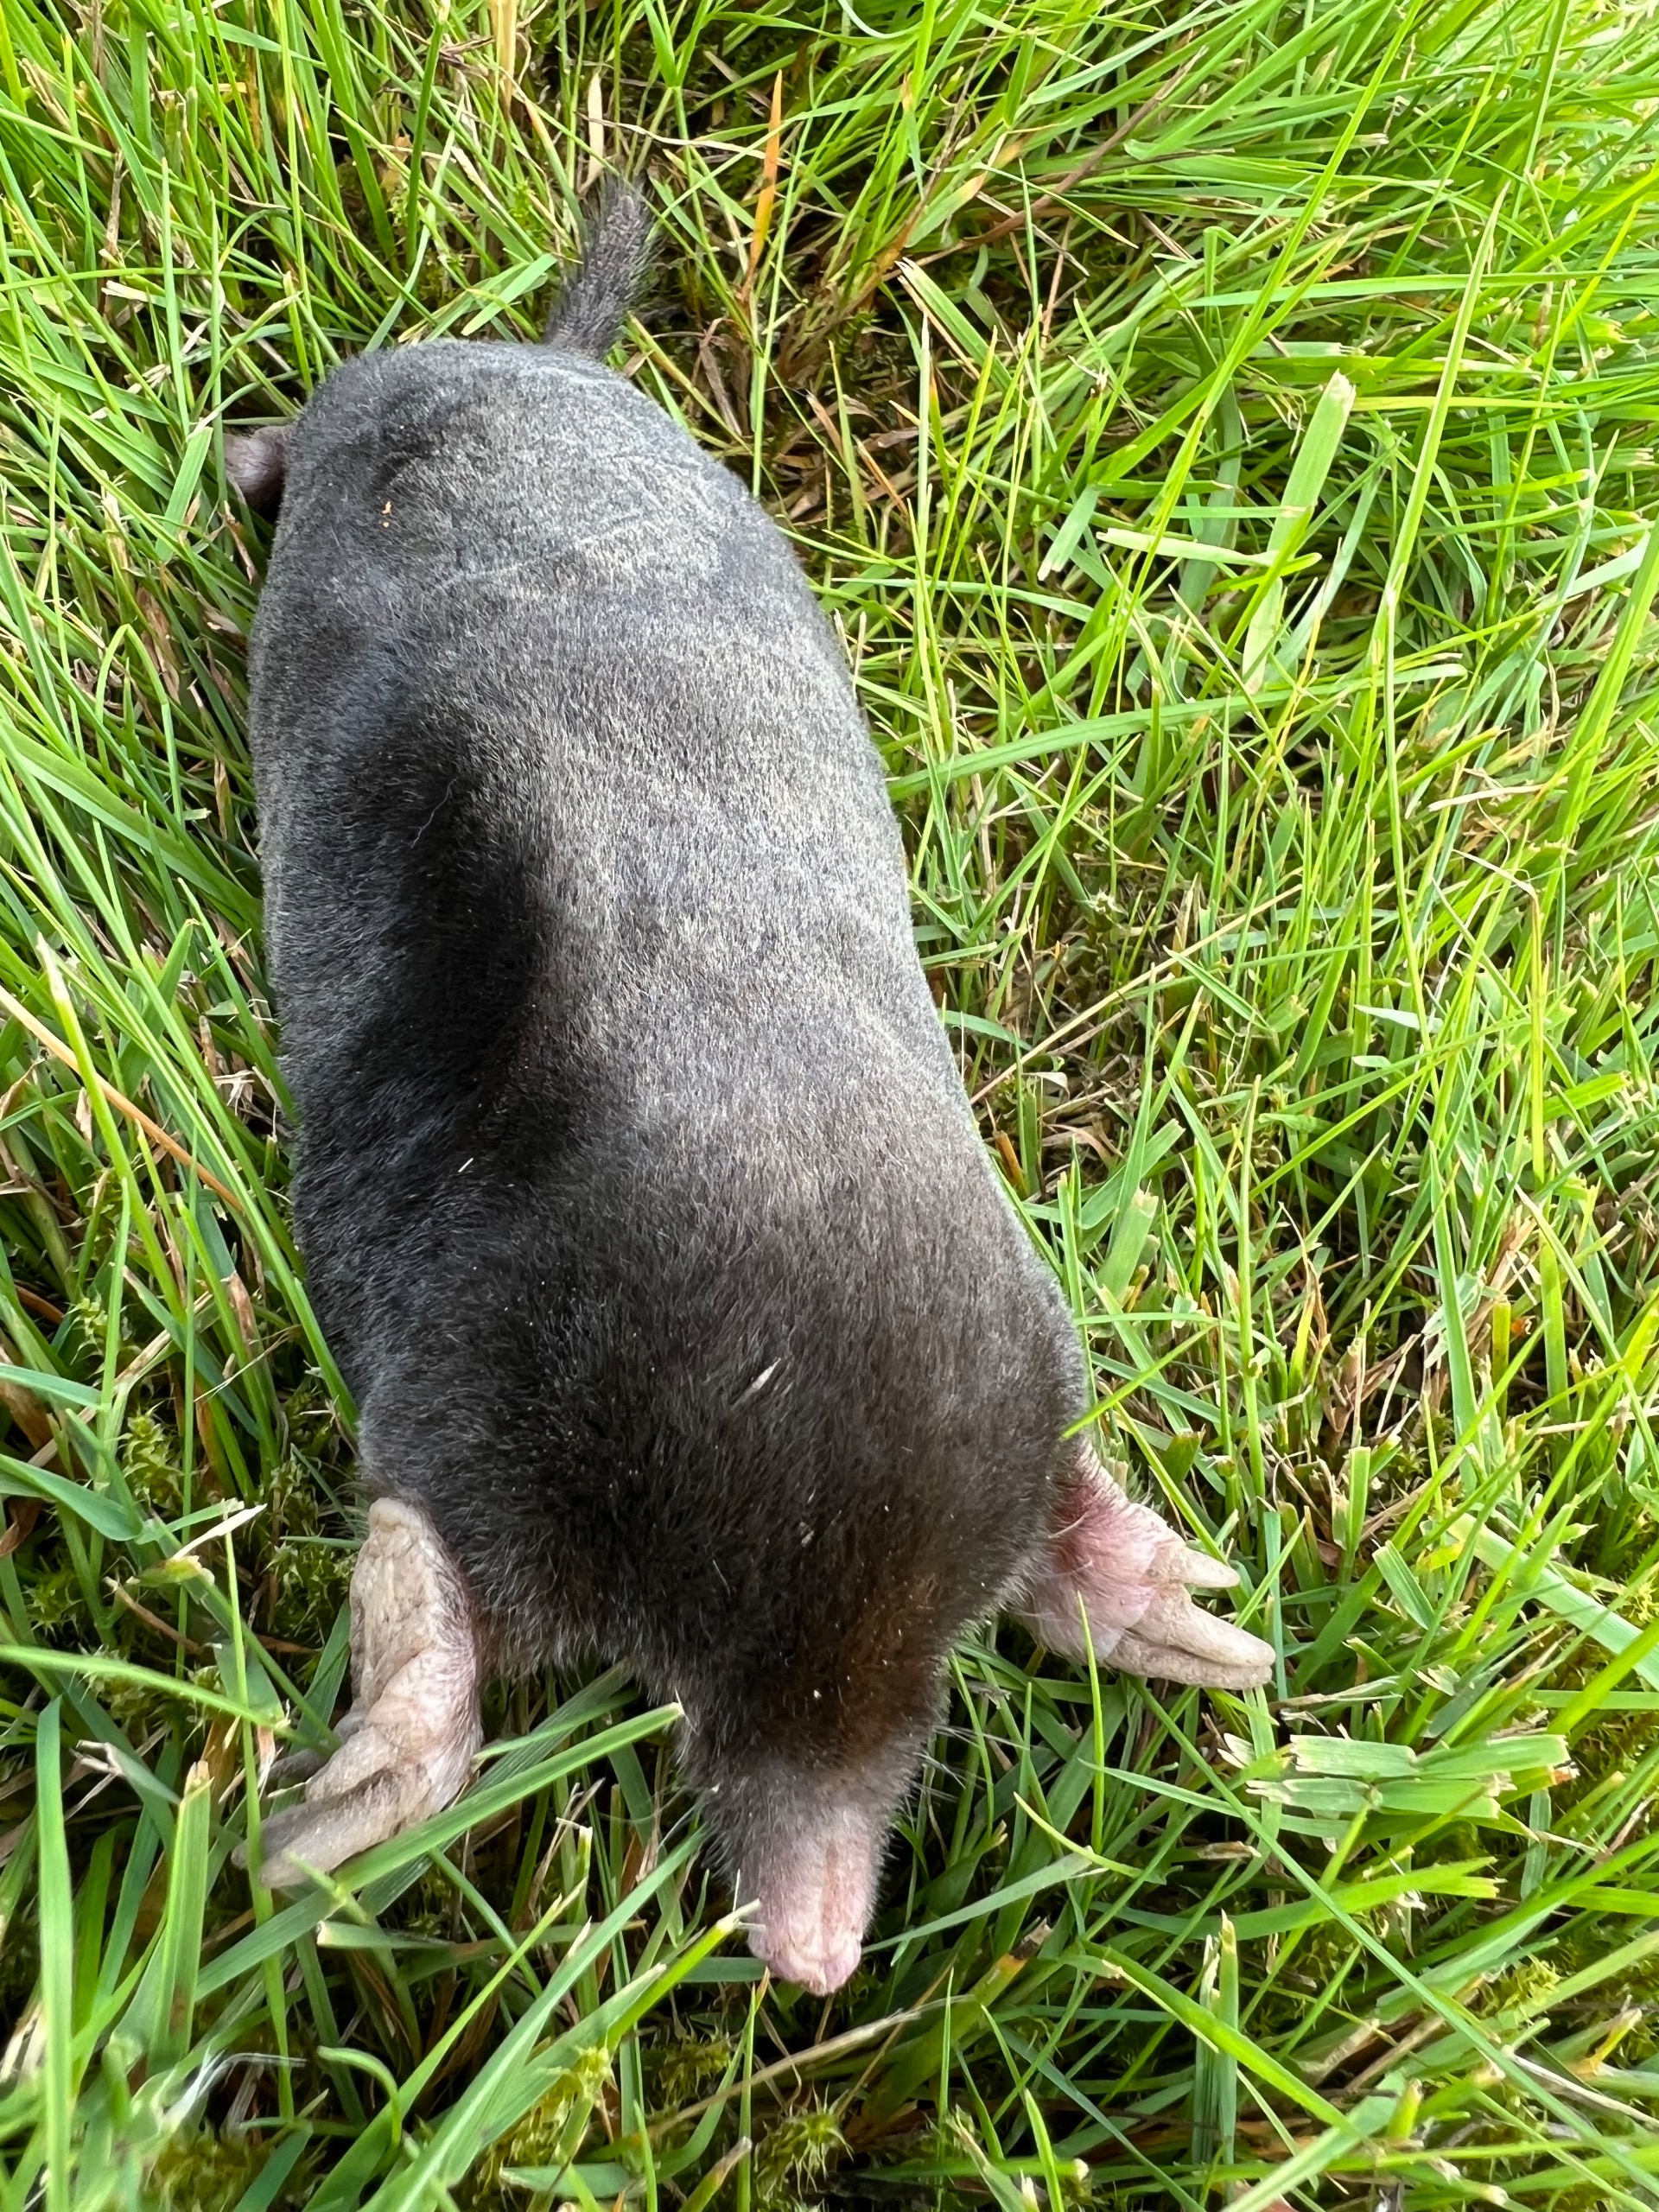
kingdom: Animalia
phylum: Chordata
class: Mammalia
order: Soricomorpha
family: Talpidae
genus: Talpa
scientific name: Talpa europaea
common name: Muldvarp
